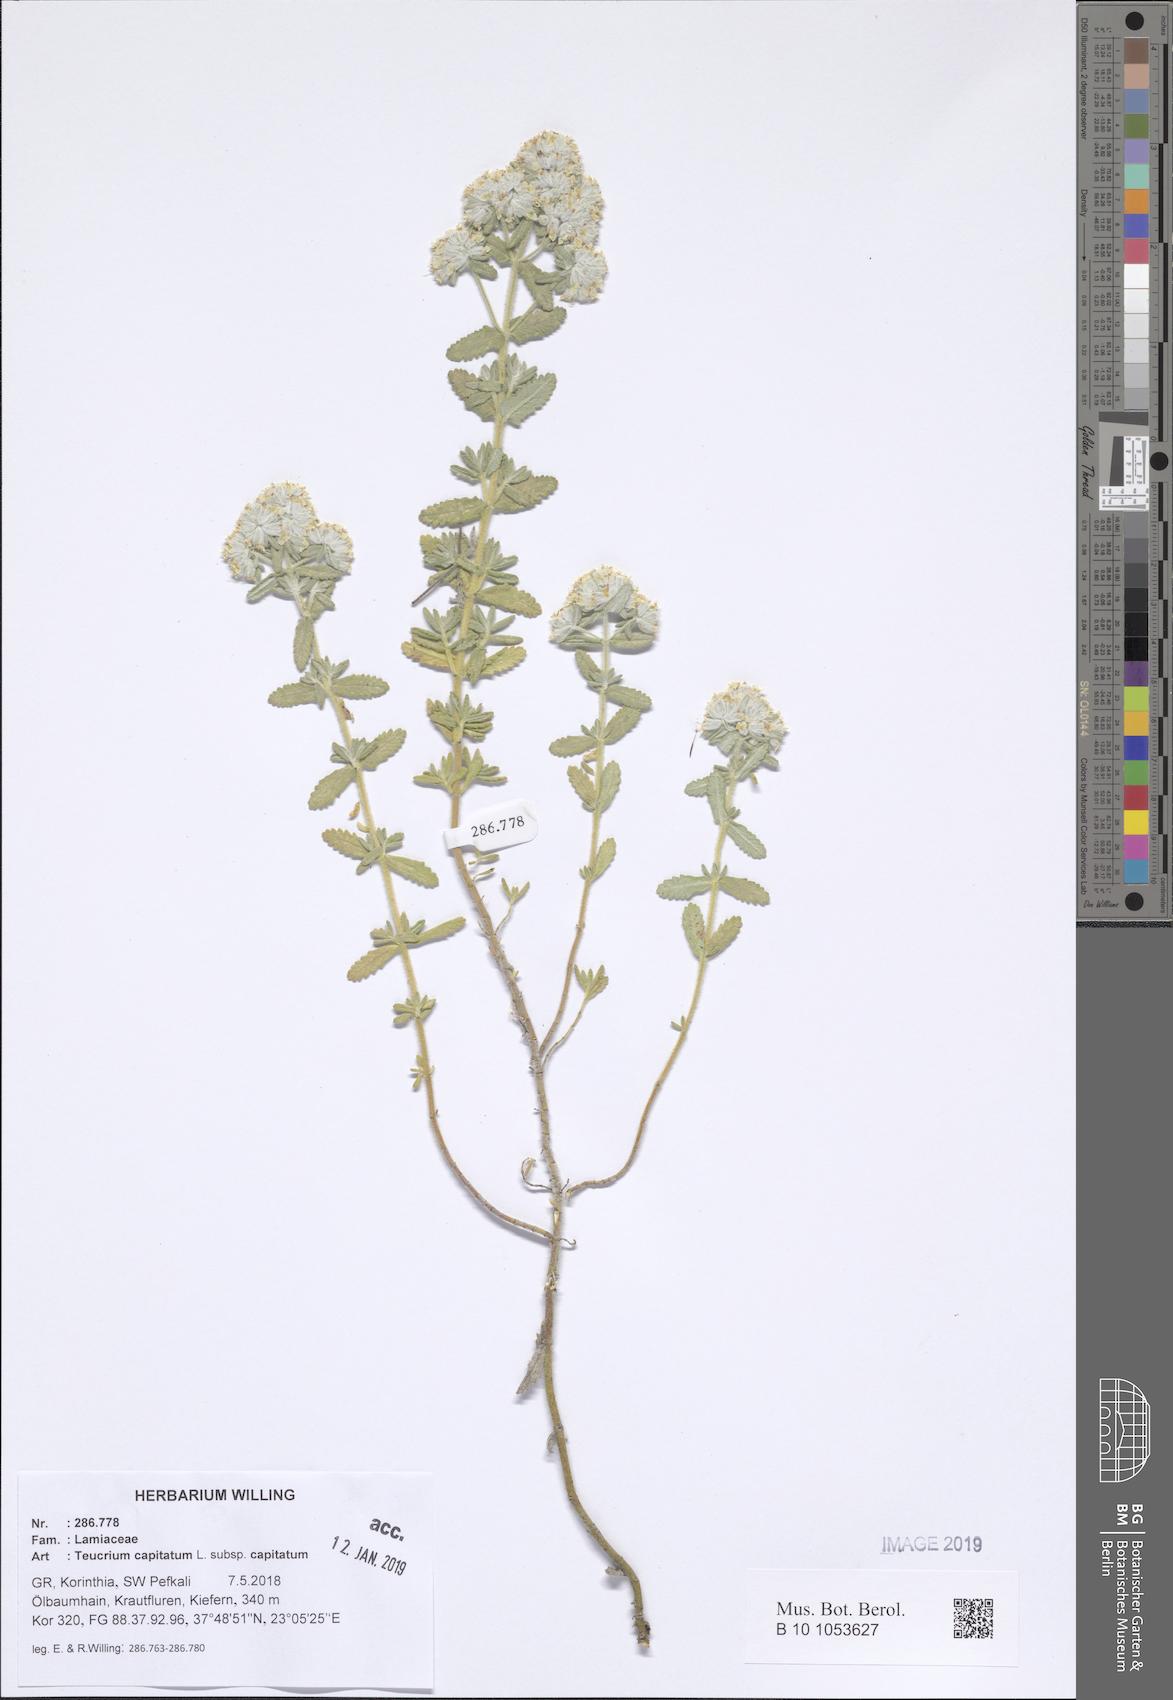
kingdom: Plantae
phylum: Tracheophyta
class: Magnoliopsida
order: Lamiales
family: Lamiaceae
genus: Teucrium
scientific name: Teucrium capitatum
